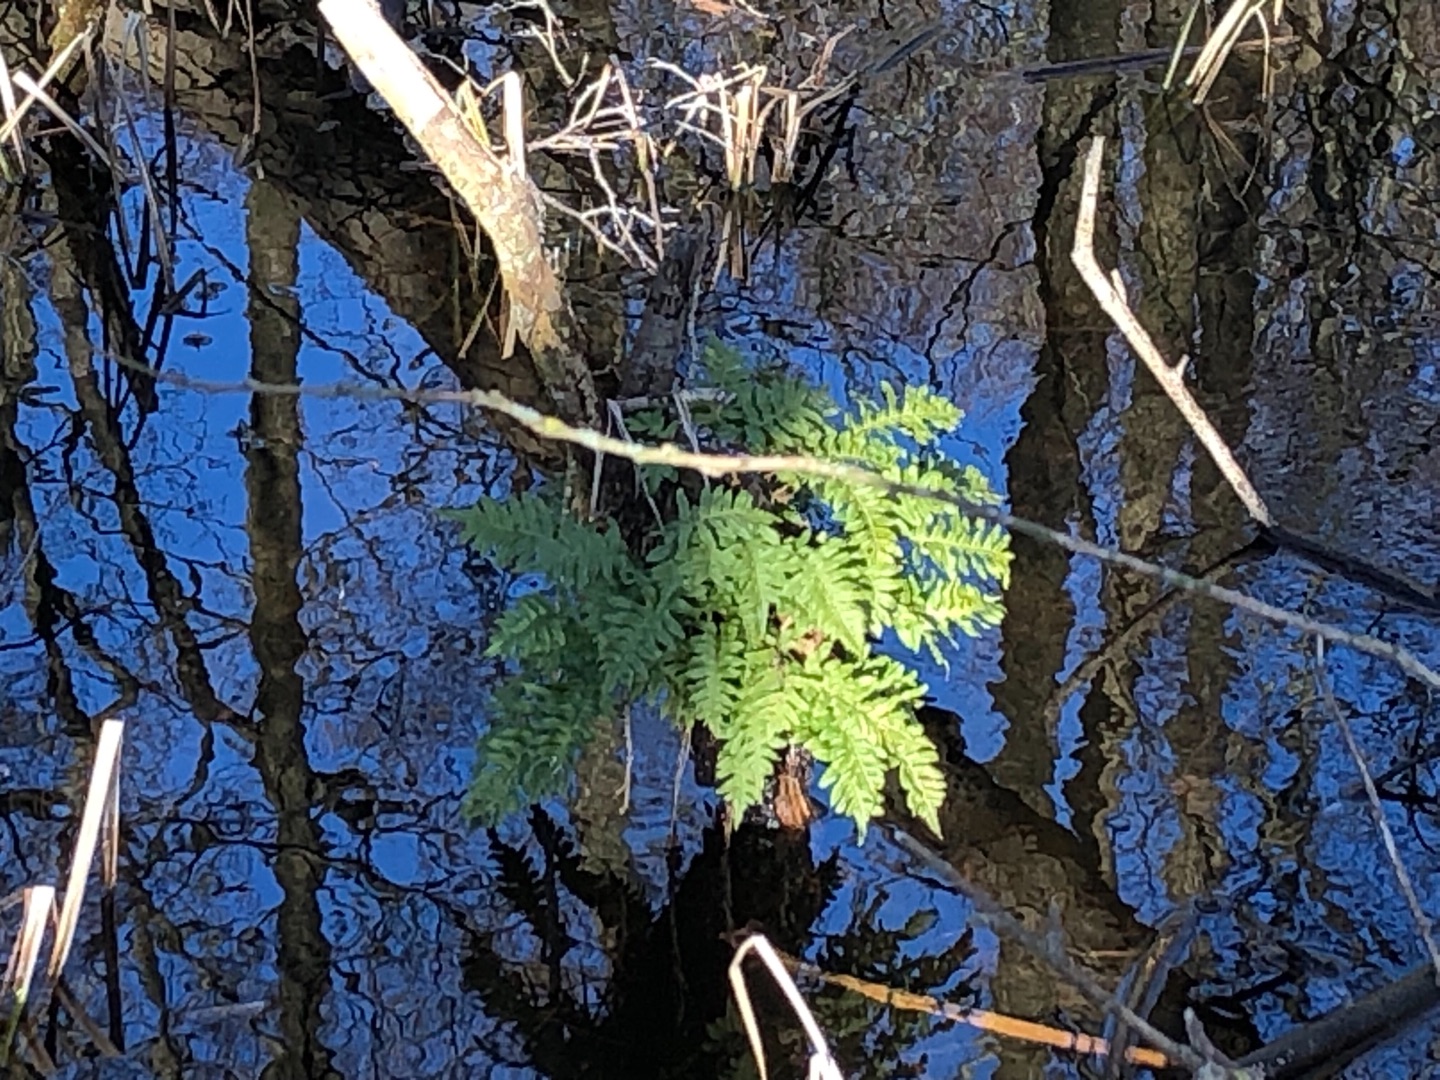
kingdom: Plantae
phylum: Tracheophyta
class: Polypodiopsida
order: Polypodiales
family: Polypodiaceae
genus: Polypodium
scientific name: Polypodium vulgare
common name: Almindelig engelsød
